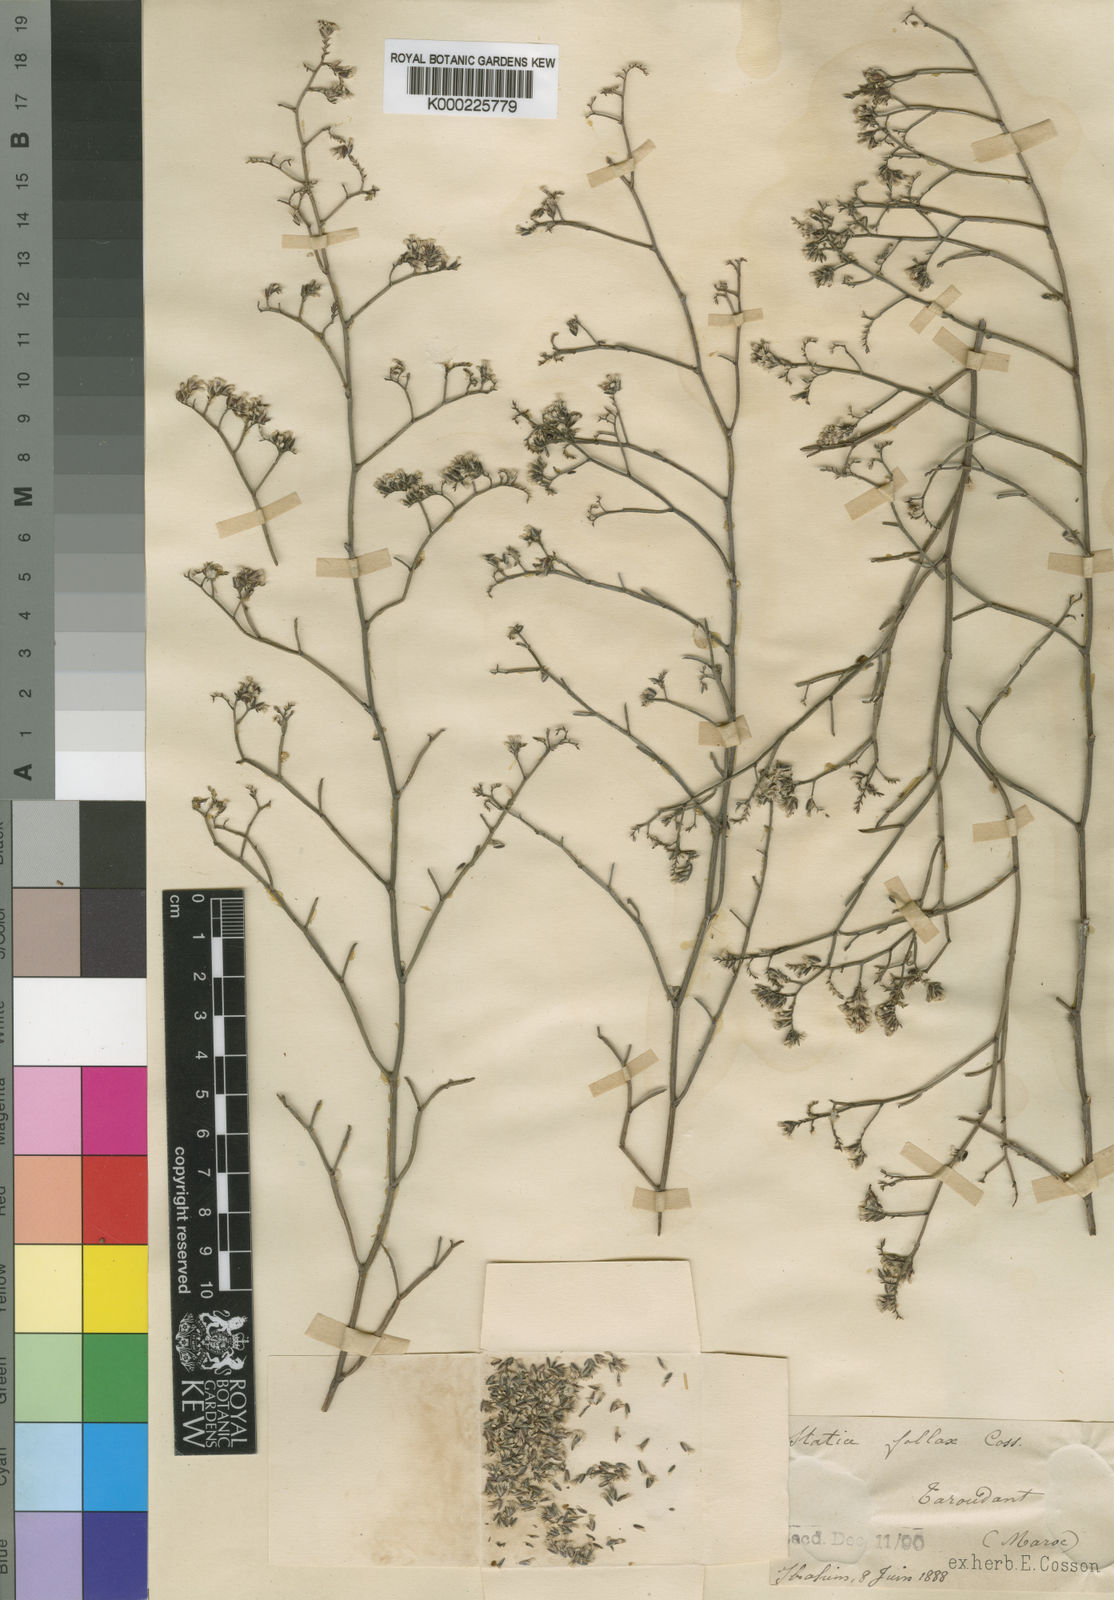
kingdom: Plantae
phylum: Tracheophyta
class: Magnoliopsida
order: Caryophyllales
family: Plumbaginaceae
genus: Limonium
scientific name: Limonium fallax
